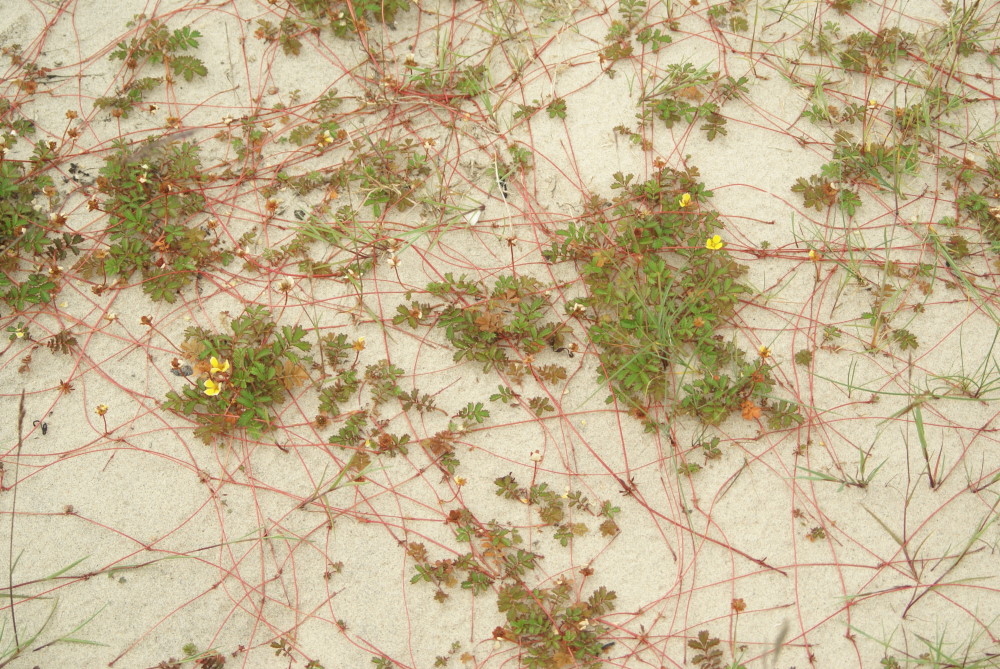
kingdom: Plantae
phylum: Tracheophyta
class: Magnoliopsida
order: Rosales
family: Rosaceae
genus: Argentina
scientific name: Argentina anserina
